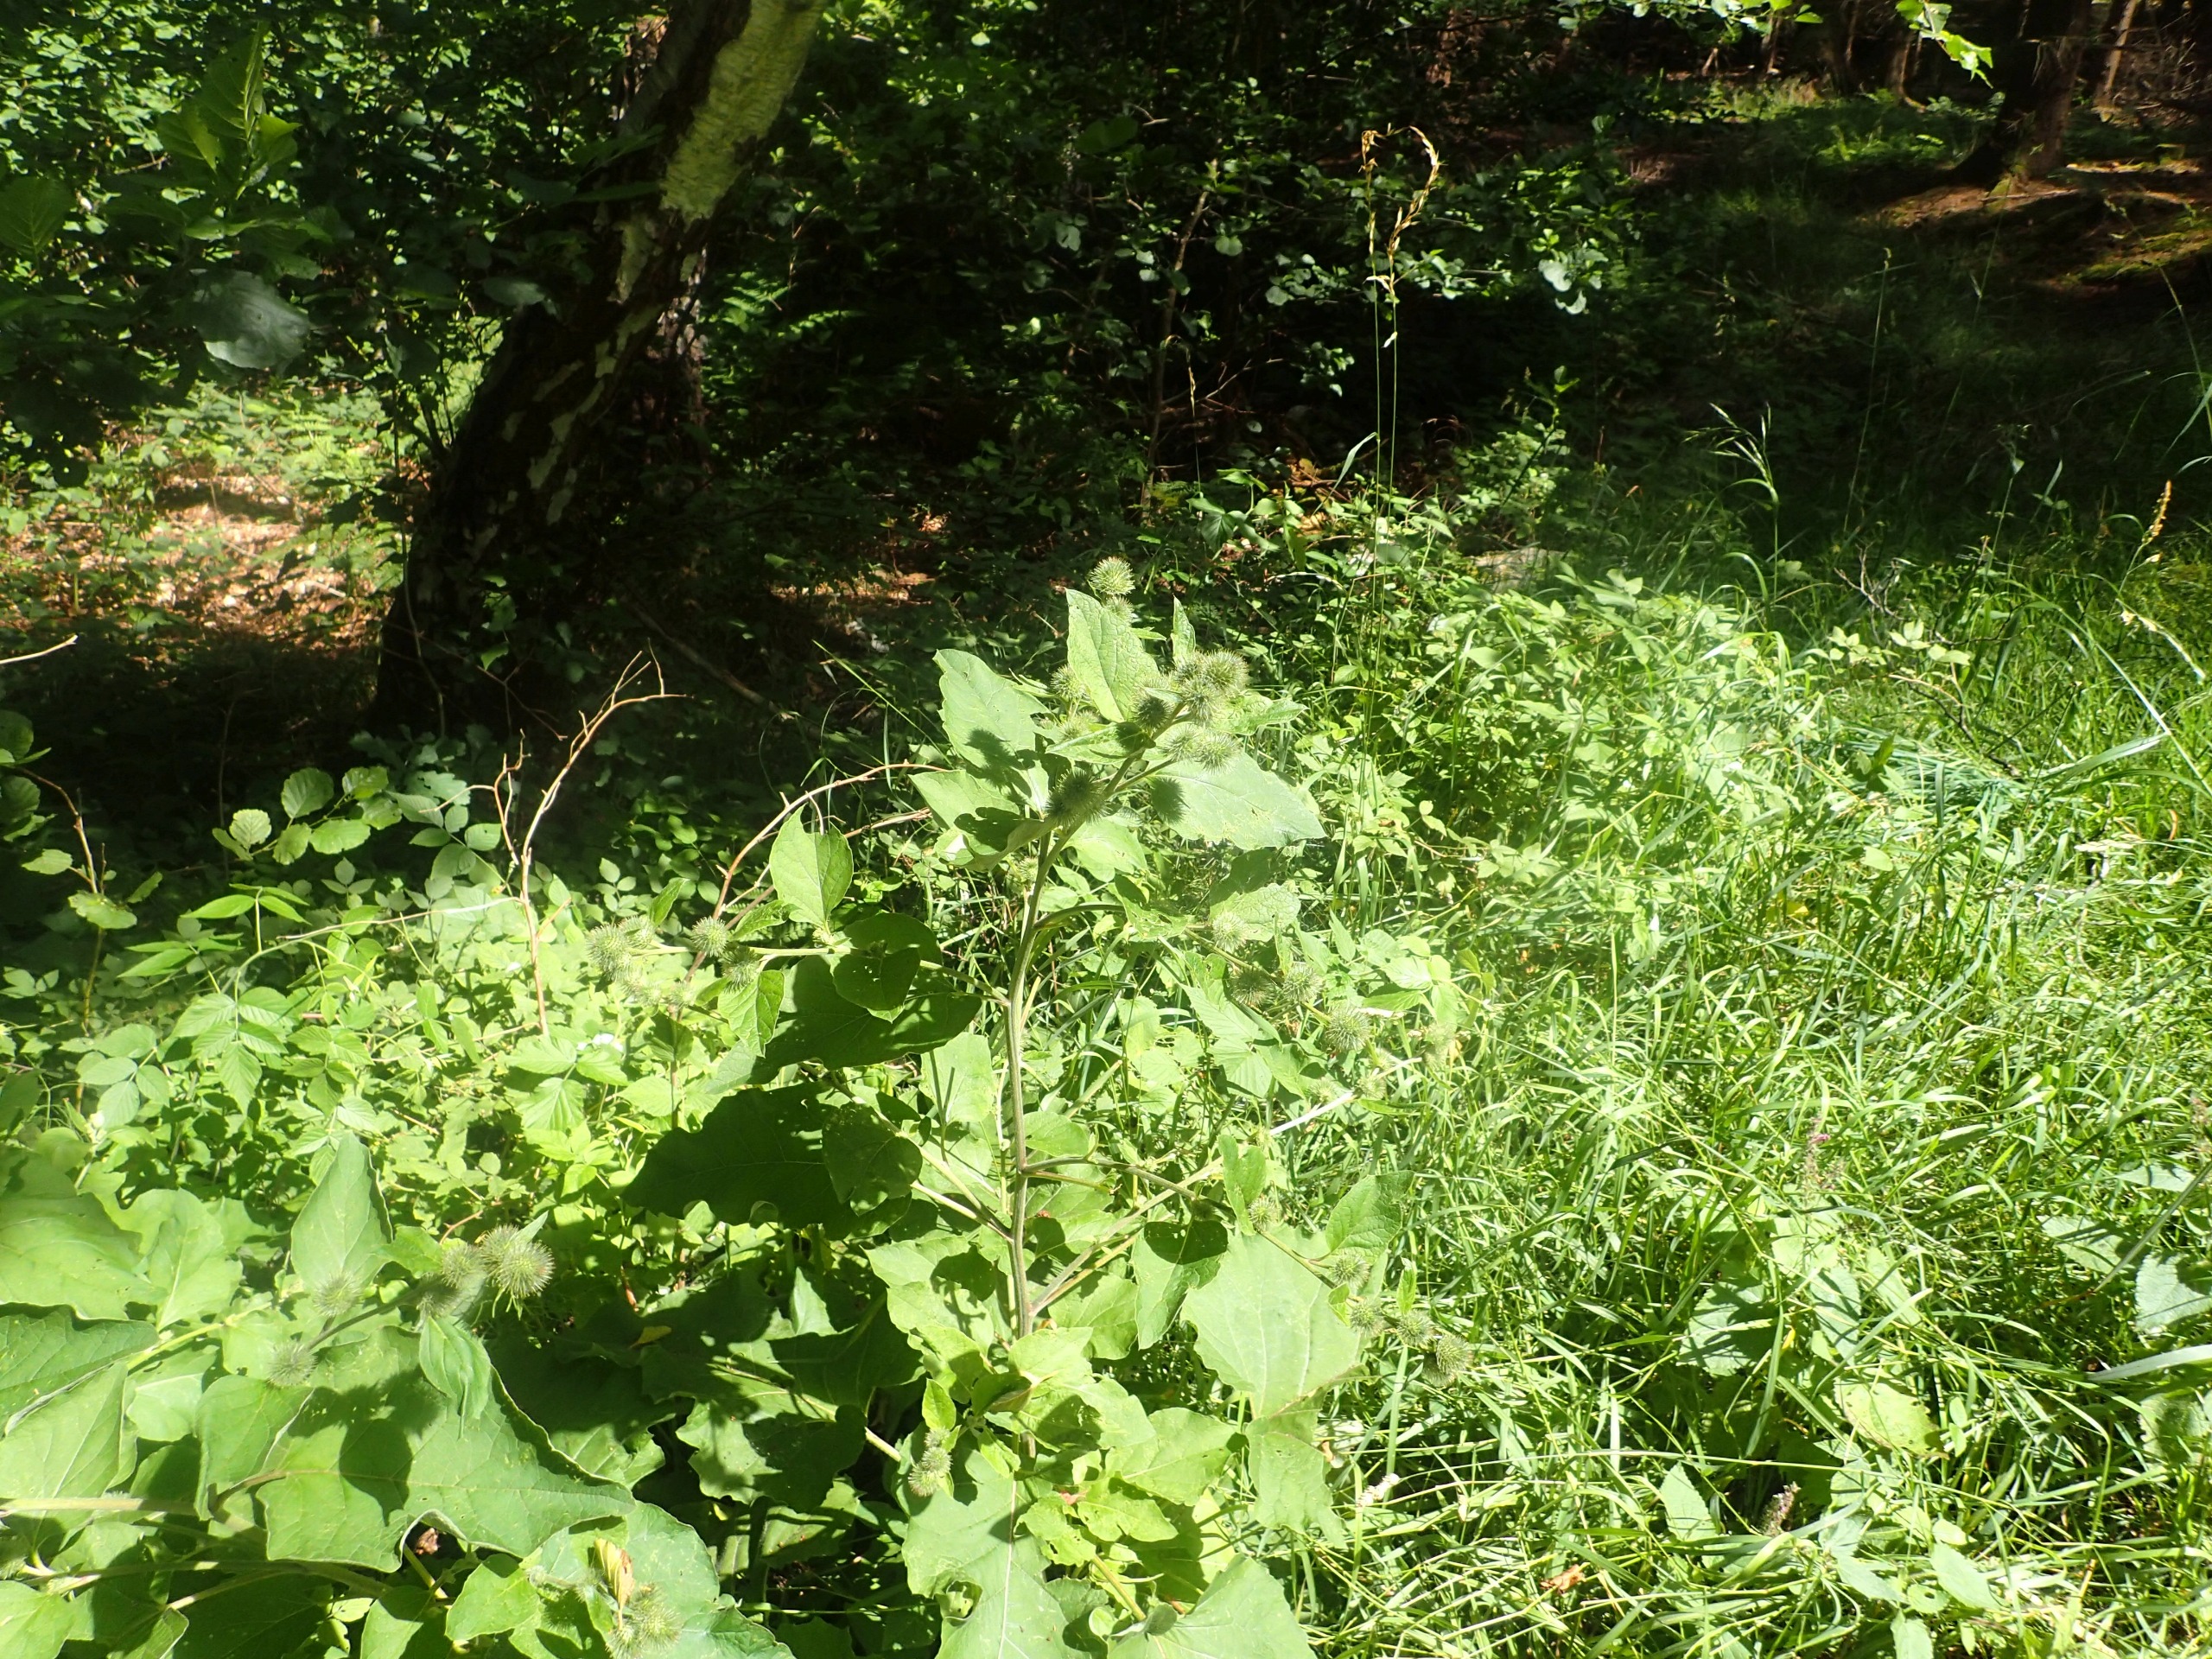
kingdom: Plantae
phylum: Tracheophyta
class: Magnoliopsida
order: Asterales
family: Asteraceae
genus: Arctium
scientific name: Arctium nemorosum
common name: Skov-burre
